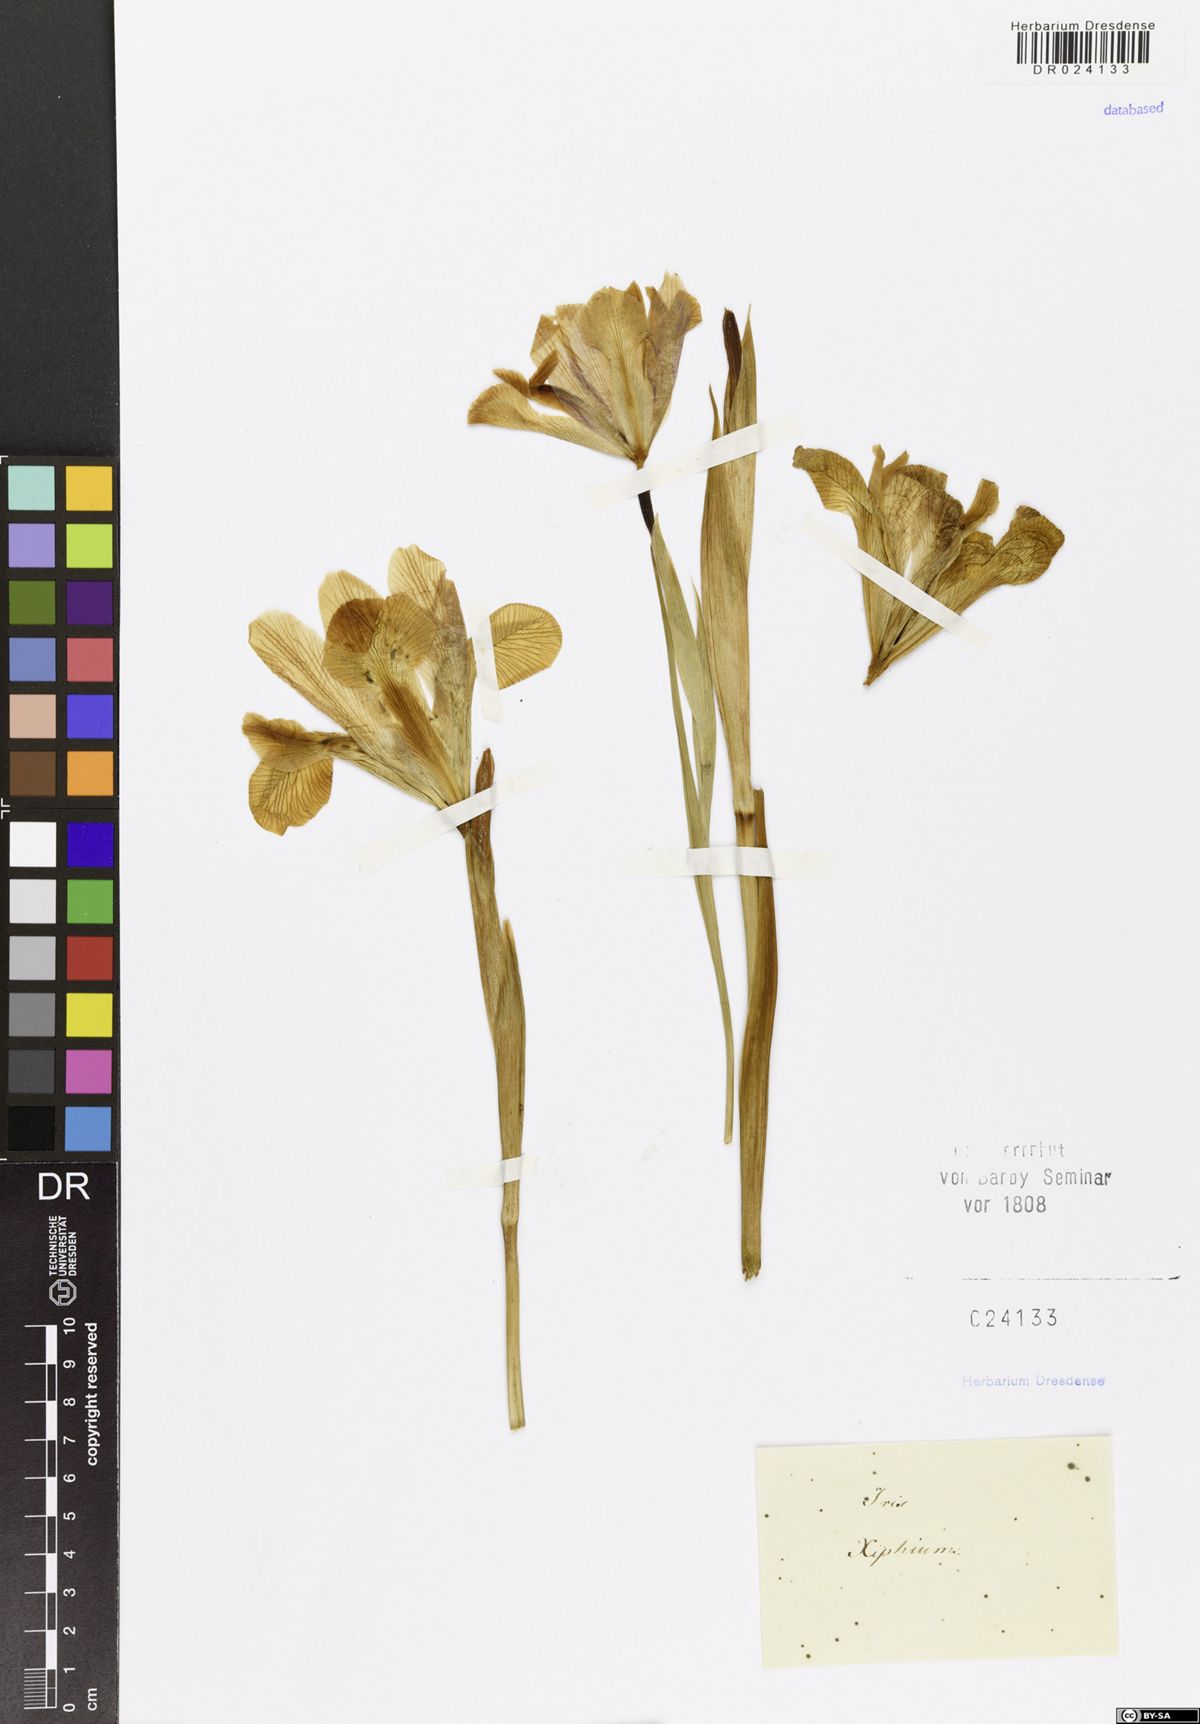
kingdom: Plantae
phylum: Tracheophyta
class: Liliopsida
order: Asparagales
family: Iridaceae
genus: Iris
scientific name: Iris xiphium
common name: Spanish iris
